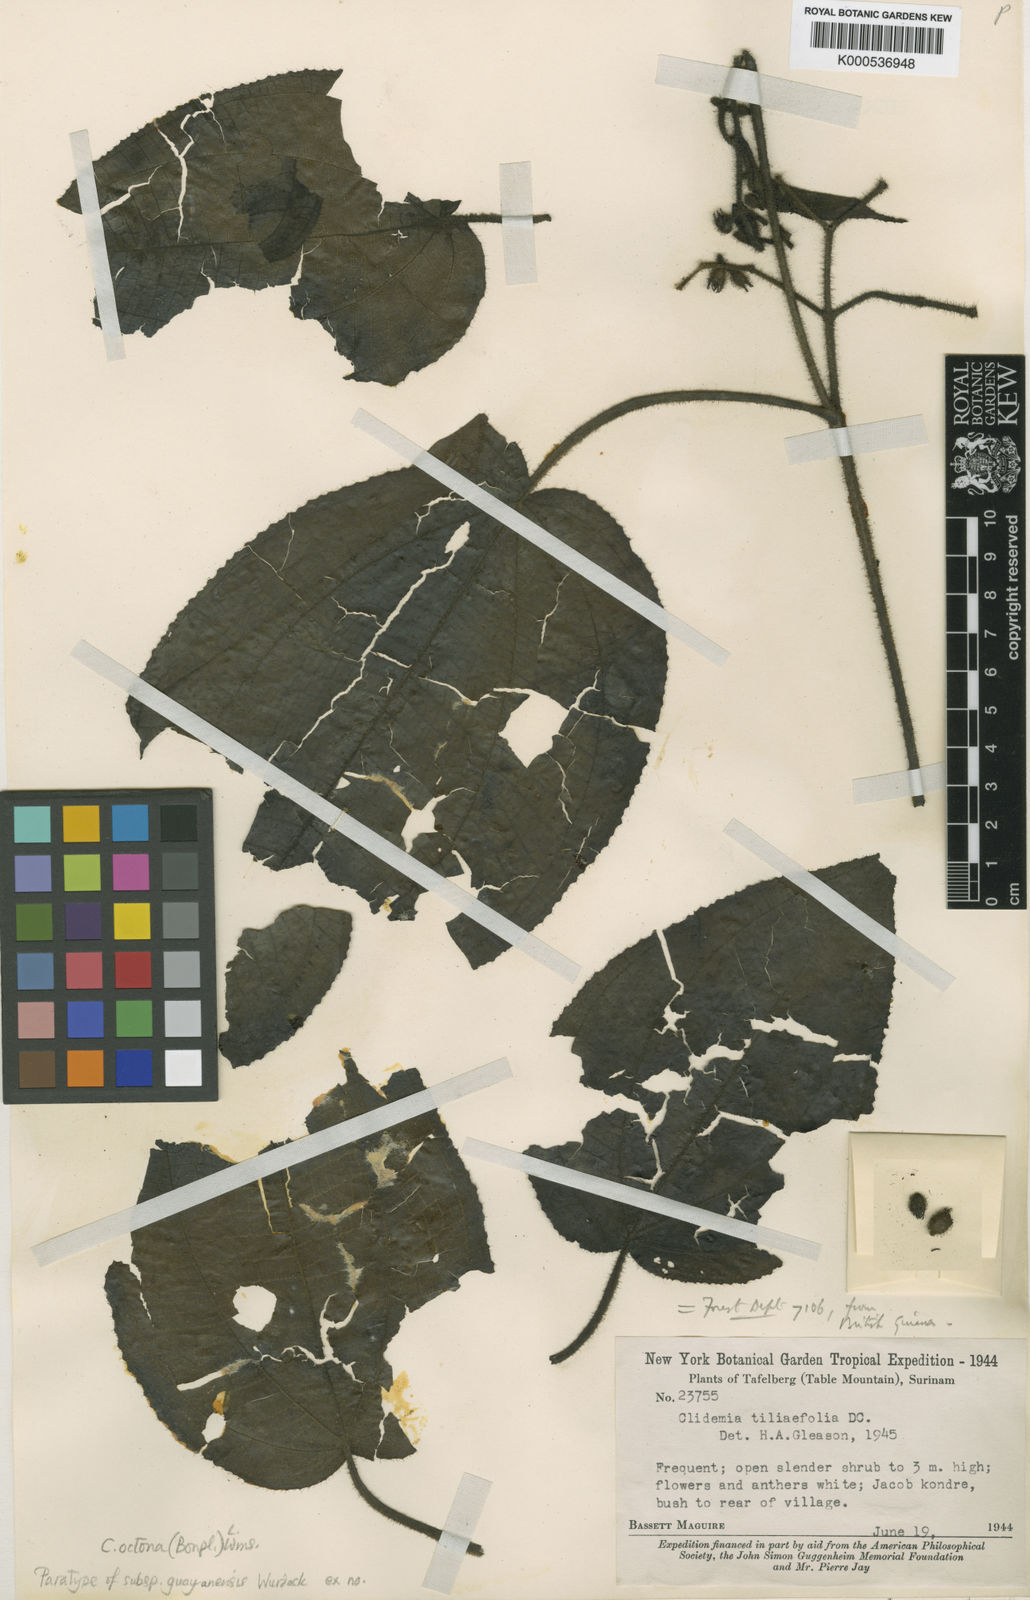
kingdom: Plantae
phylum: Tracheophyta
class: Magnoliopsida
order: Myrtales
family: Melastomataceae
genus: Miconia
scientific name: Miconia octona
